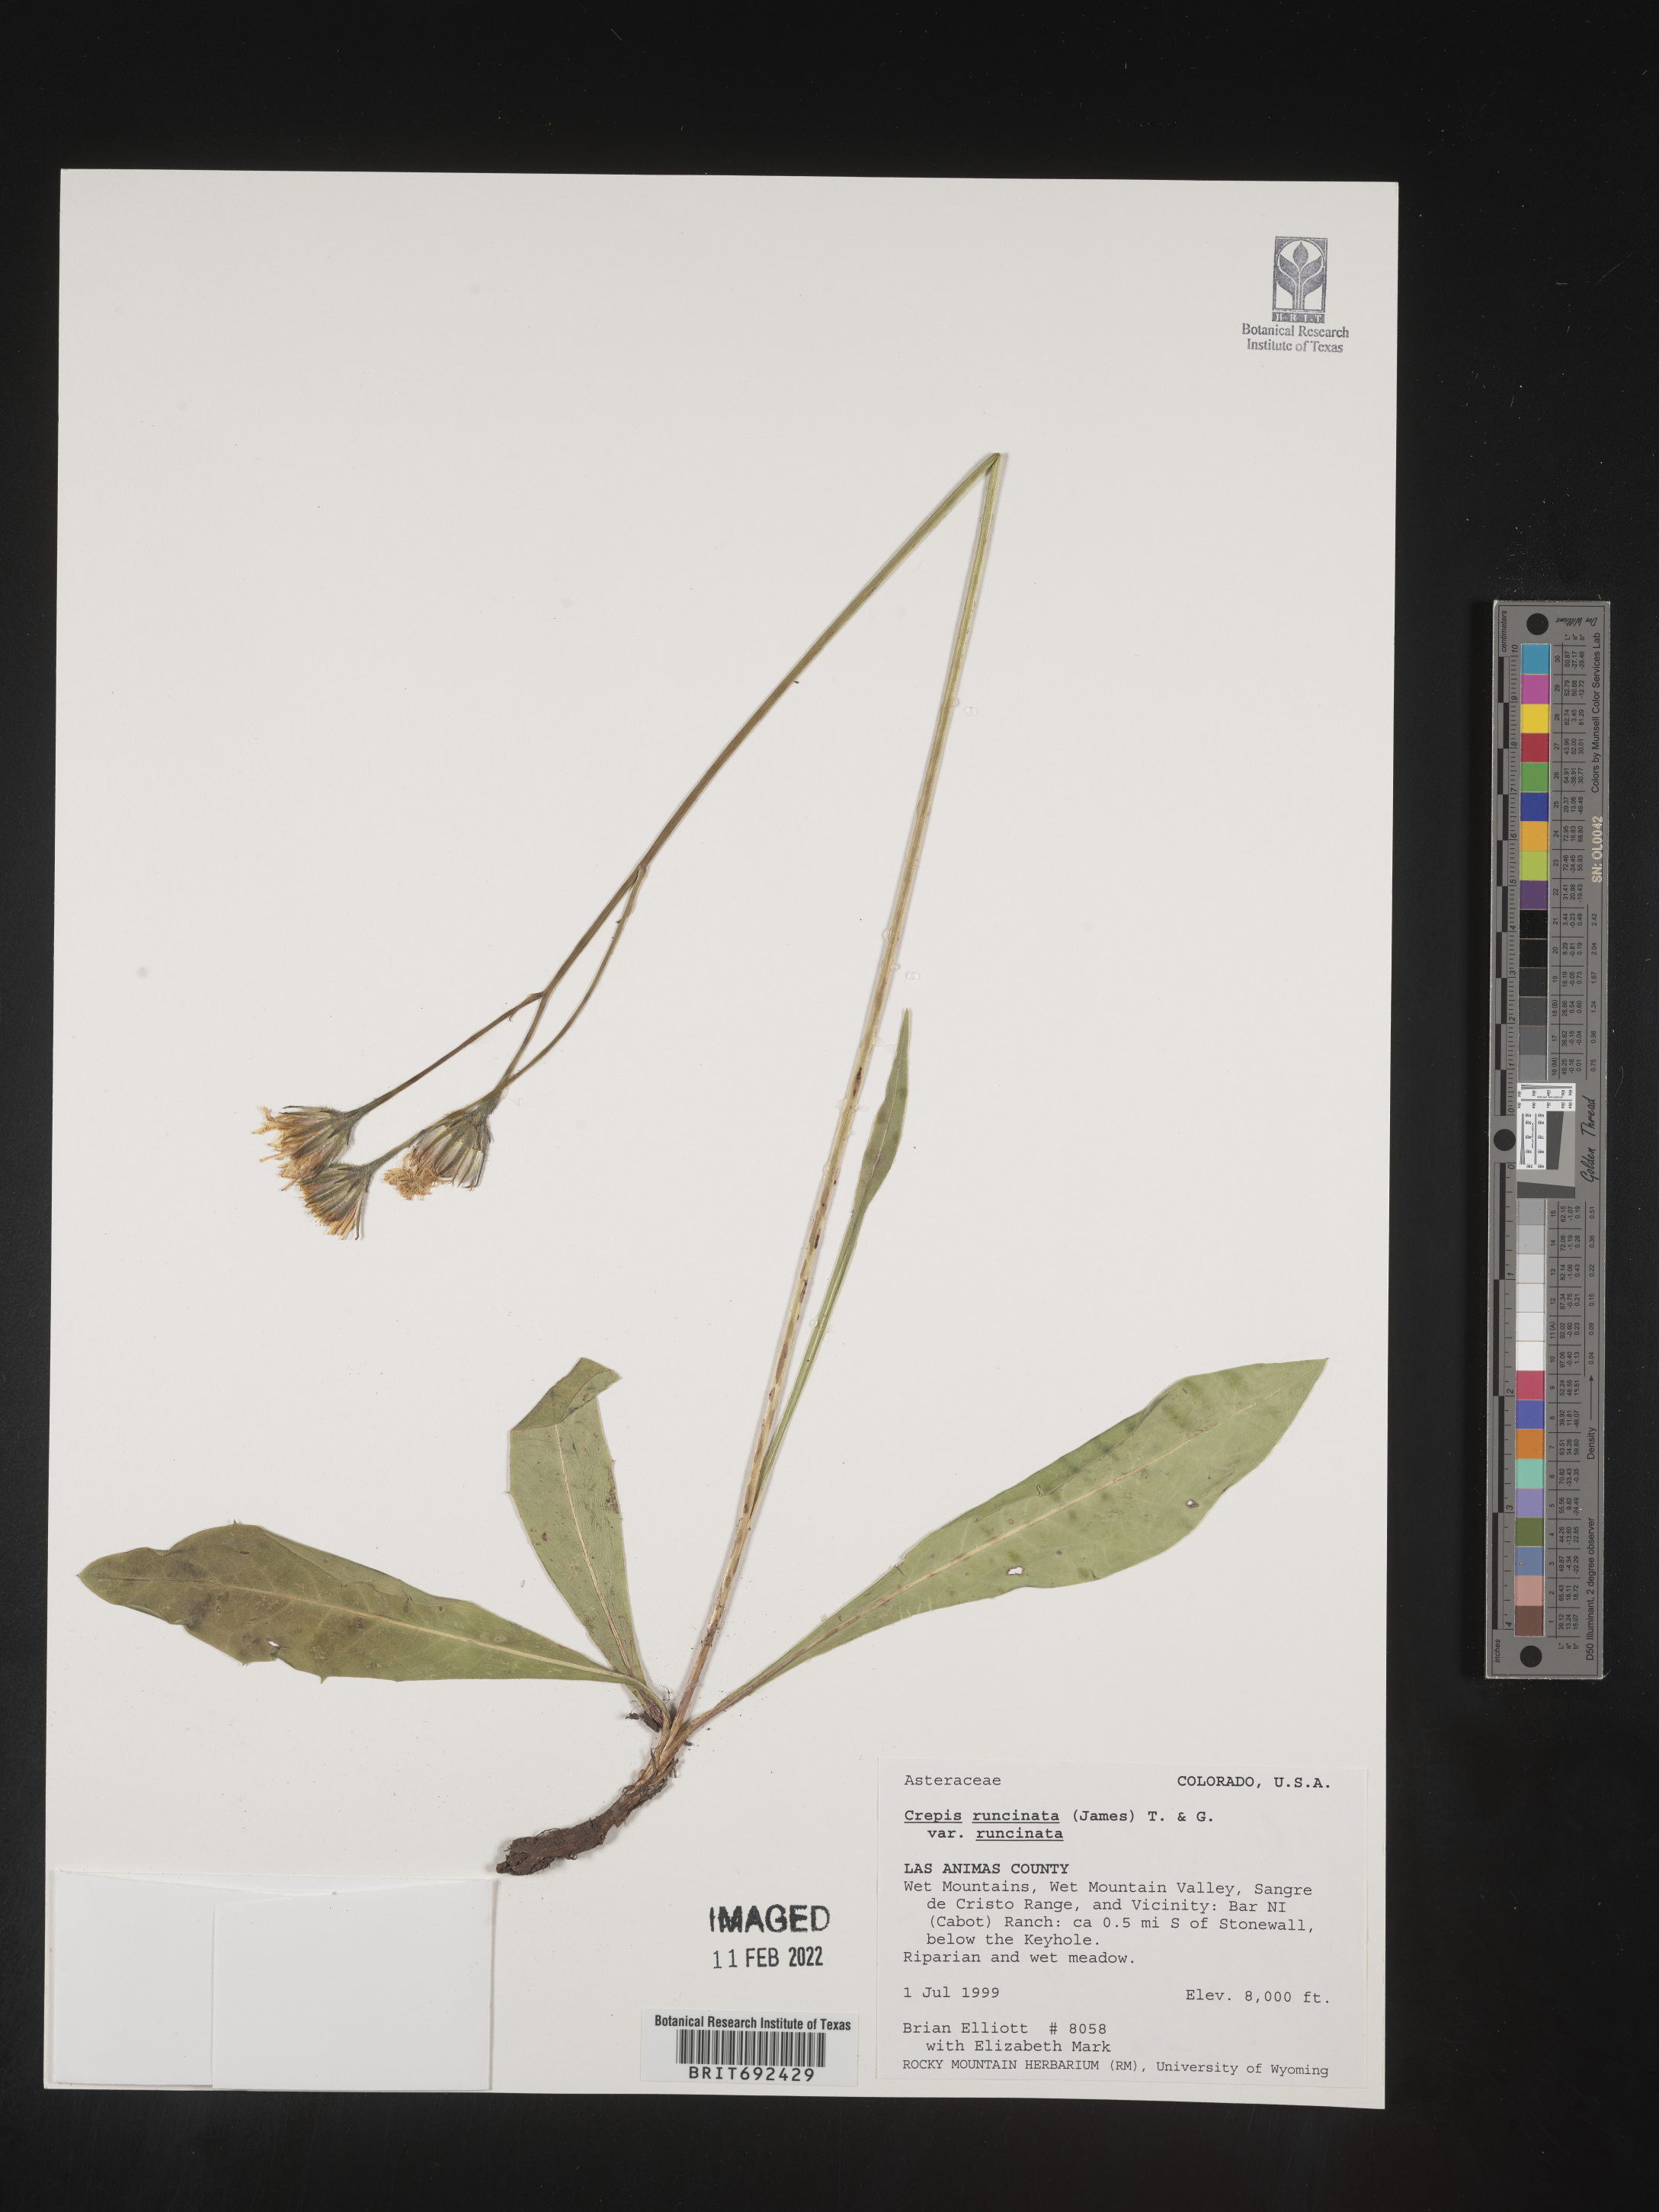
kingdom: Plantae
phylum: Tracheophyta
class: Magnoliopsida
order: Asterales
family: Asteraceae
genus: Crepis
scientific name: Crepis
